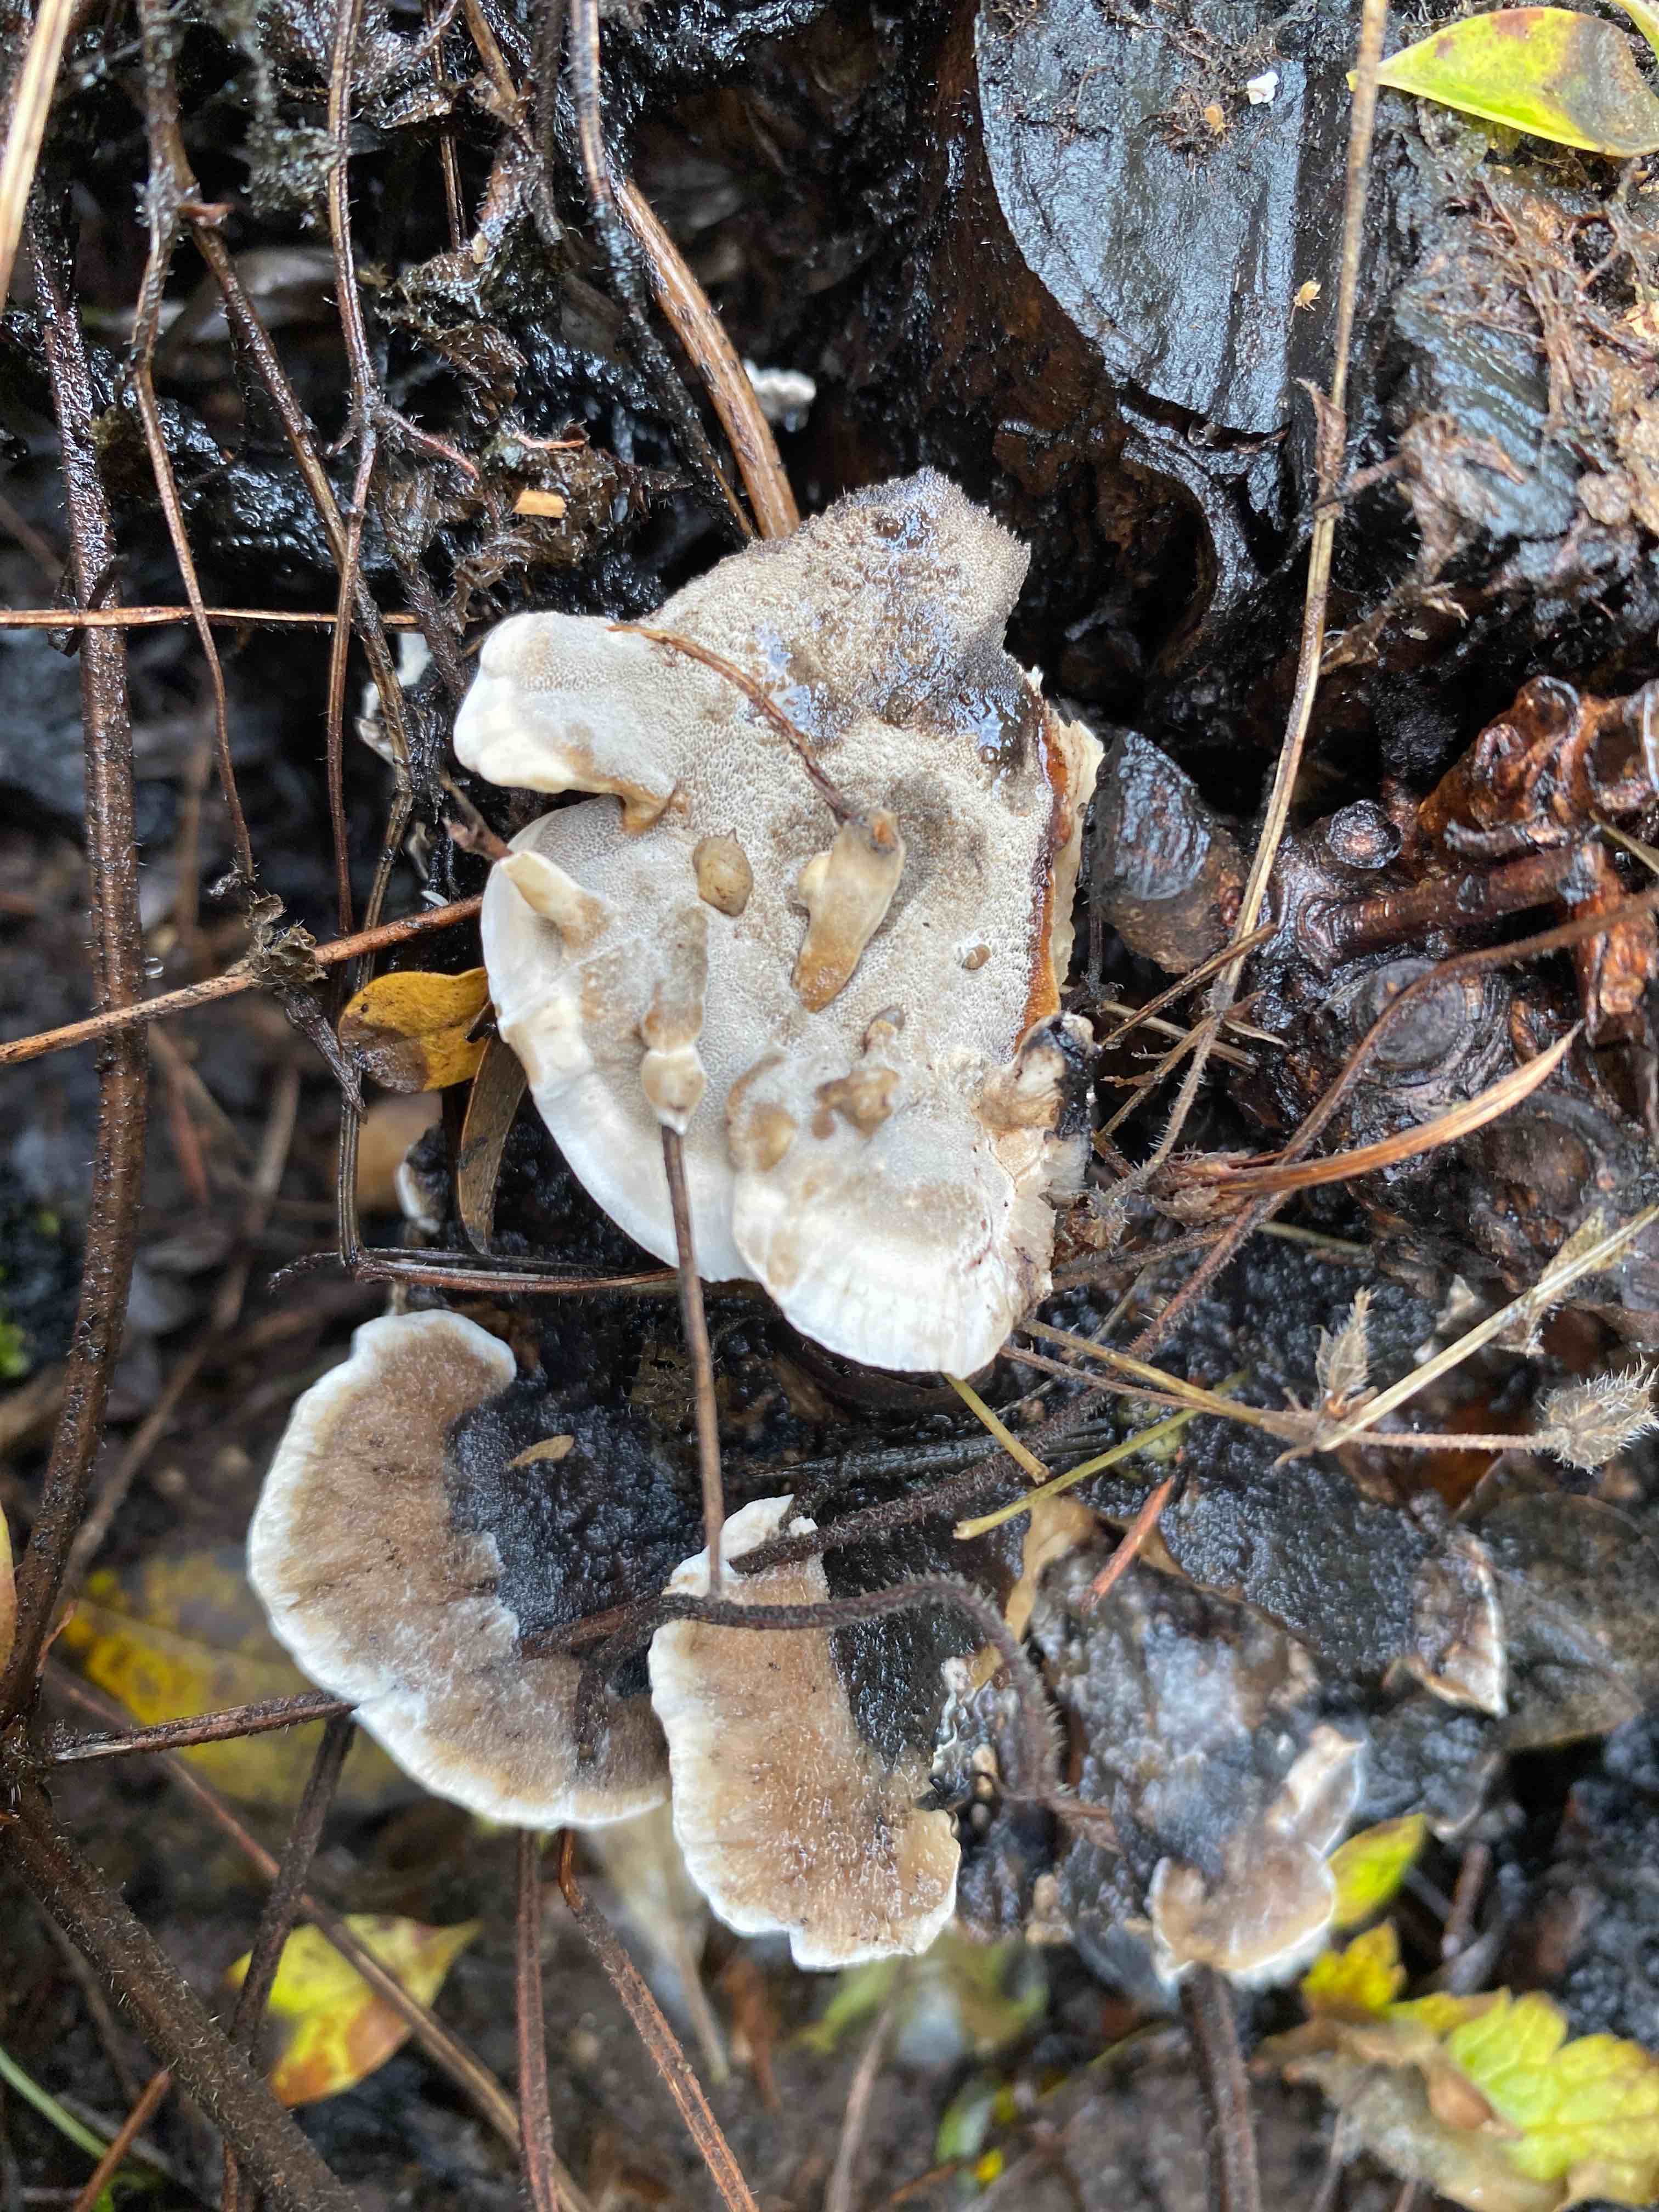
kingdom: Fungi
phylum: Basidiomycota
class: Agaricomycetes
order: Polyporales
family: Phanerochaetaceae
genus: Bjerkandera
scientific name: Bjerkandera adusta
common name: sveden sodporesvamp
